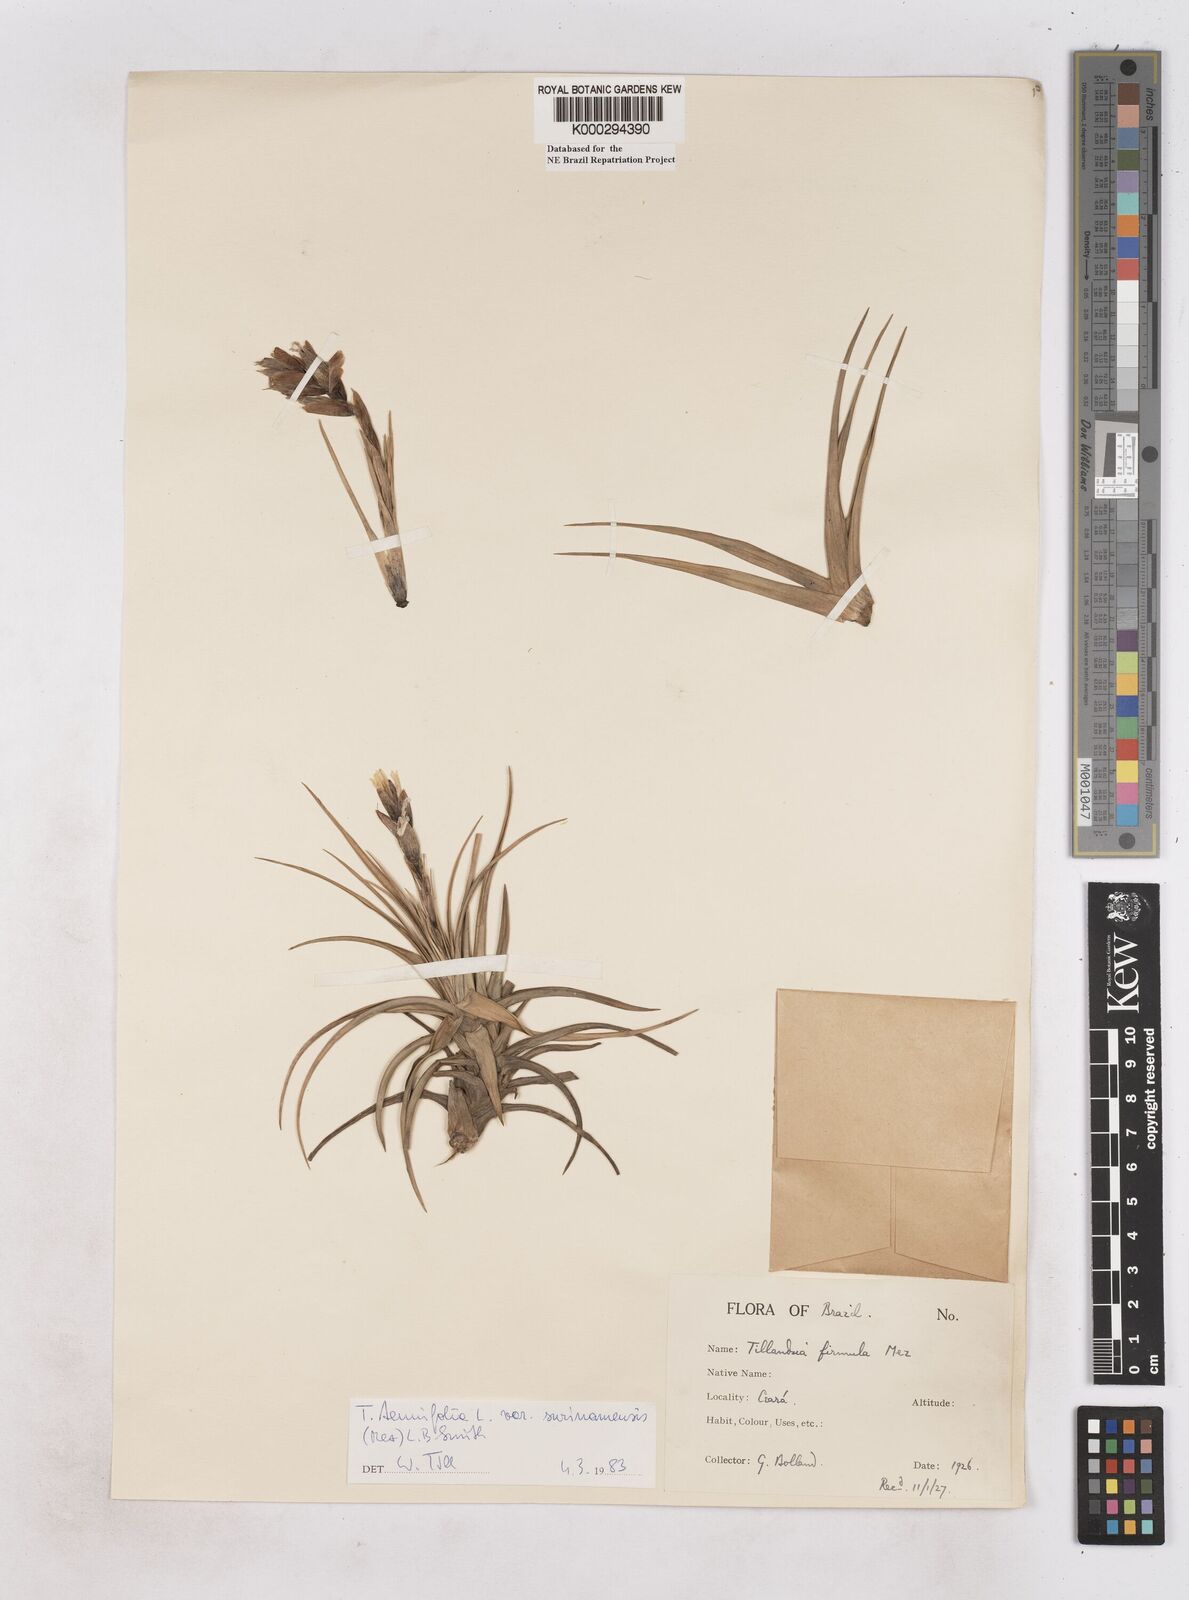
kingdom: Plantae
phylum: Tracheophyta
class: Liliopsida
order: Poales
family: Bromeliaceae
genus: Tillandsia
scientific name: Tillandsia tenuifolia
